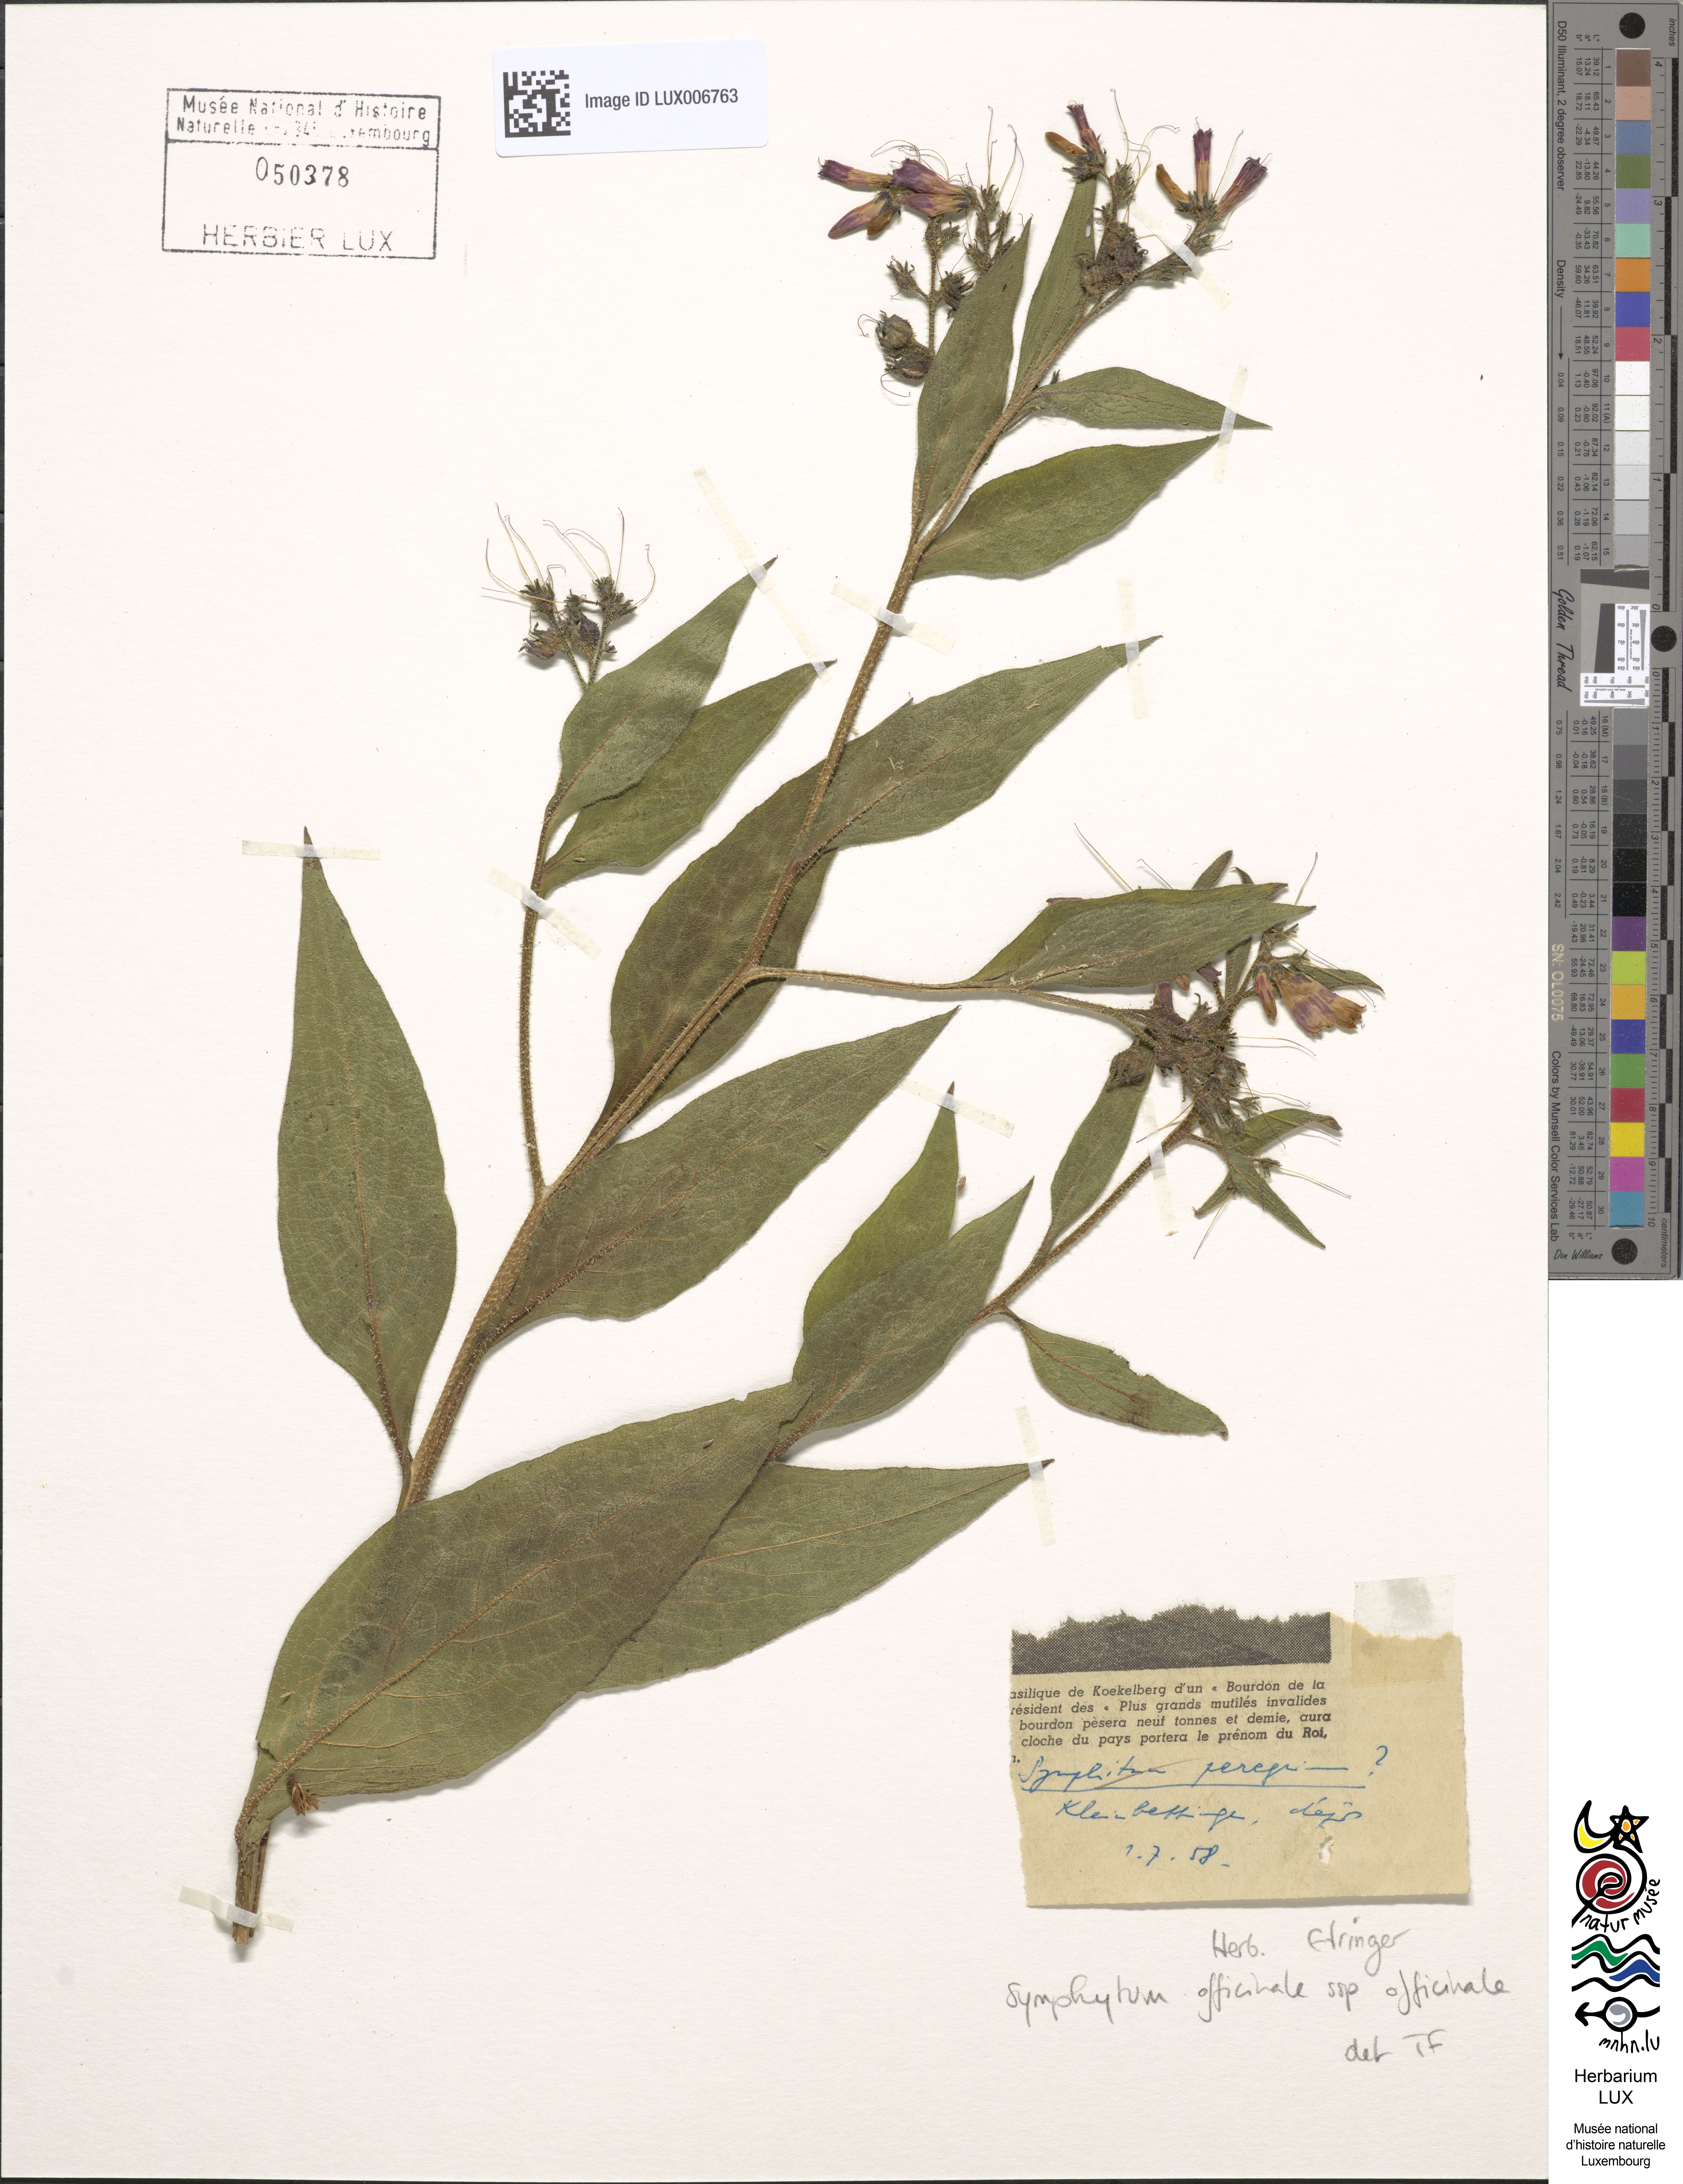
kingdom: Plantae
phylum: Tracheophyta
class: Magnoliopsida
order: Boraginales
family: Boraginaceae
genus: Symphytum
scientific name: Symphytum officinale
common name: Common comfrey
